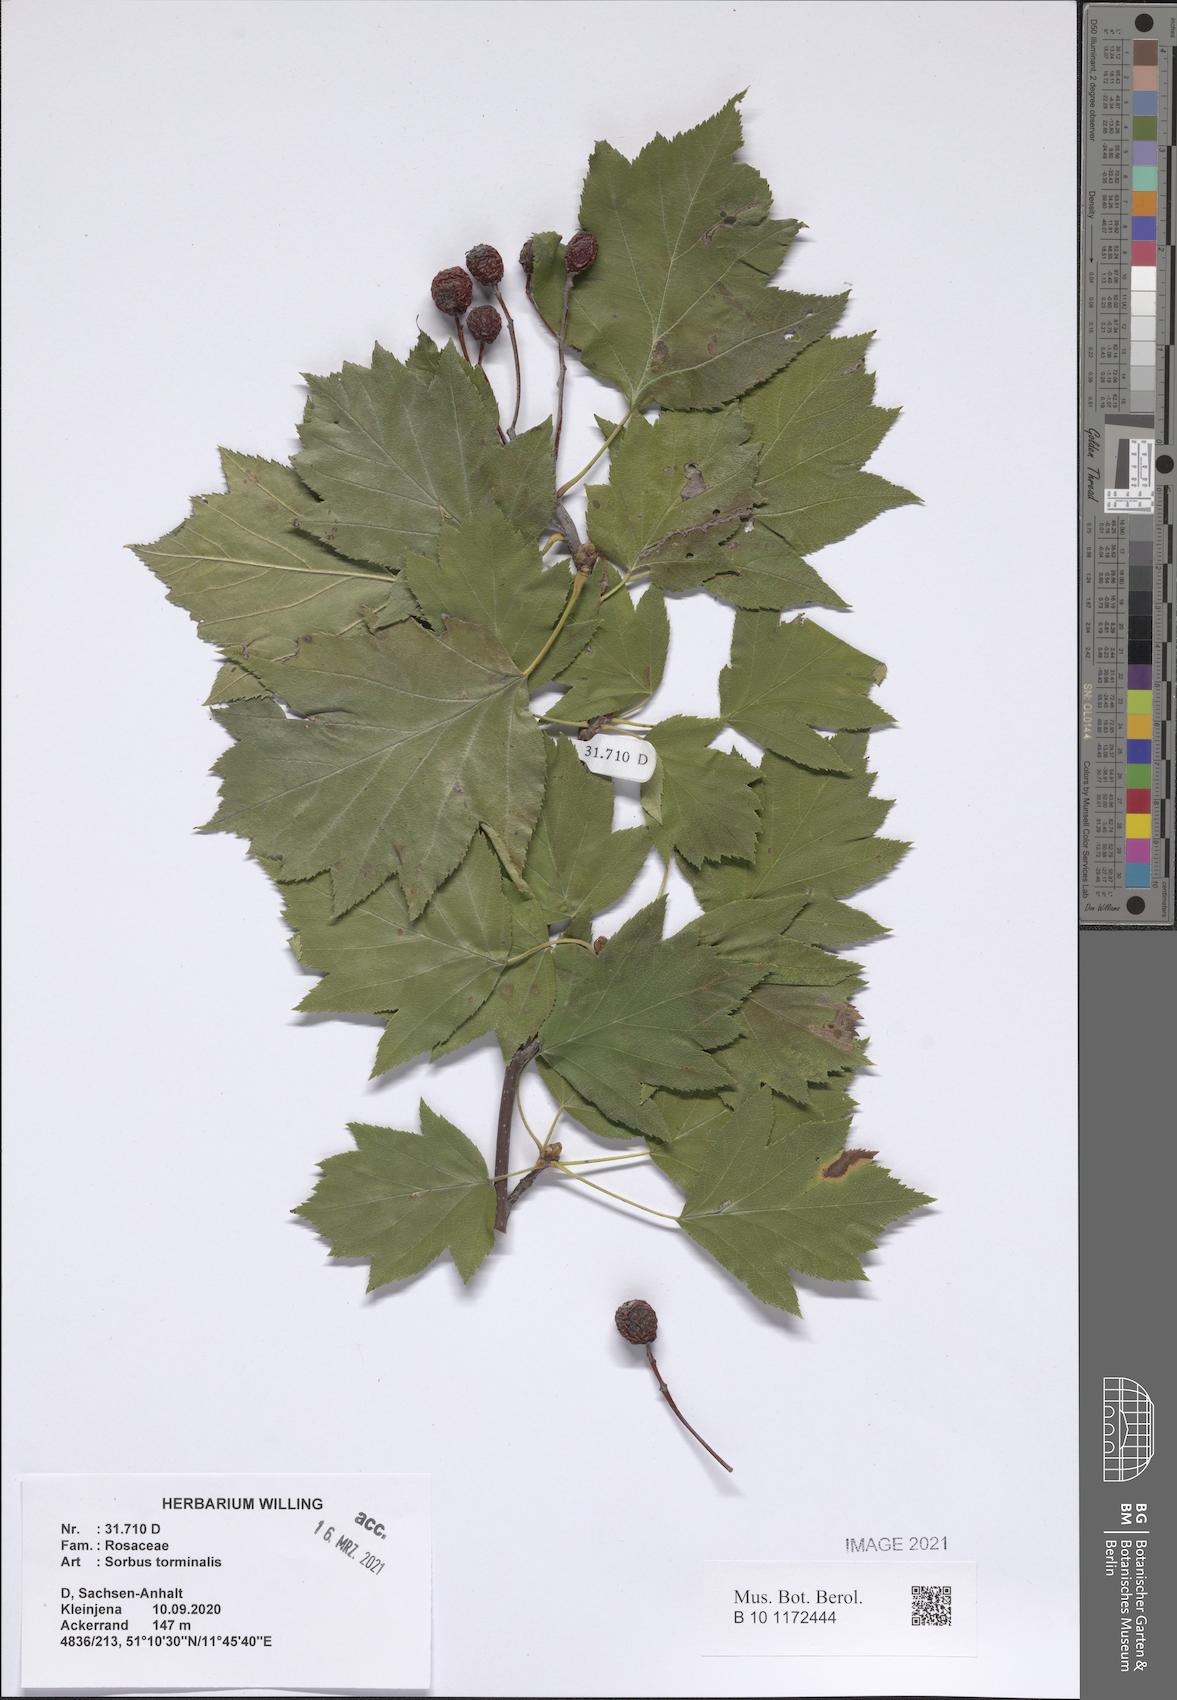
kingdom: Plantae
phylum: Tracheophyta
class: Magnoliopsida
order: Rosales
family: Rosaceae
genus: Torminalis
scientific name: Torminalis glaberrima
